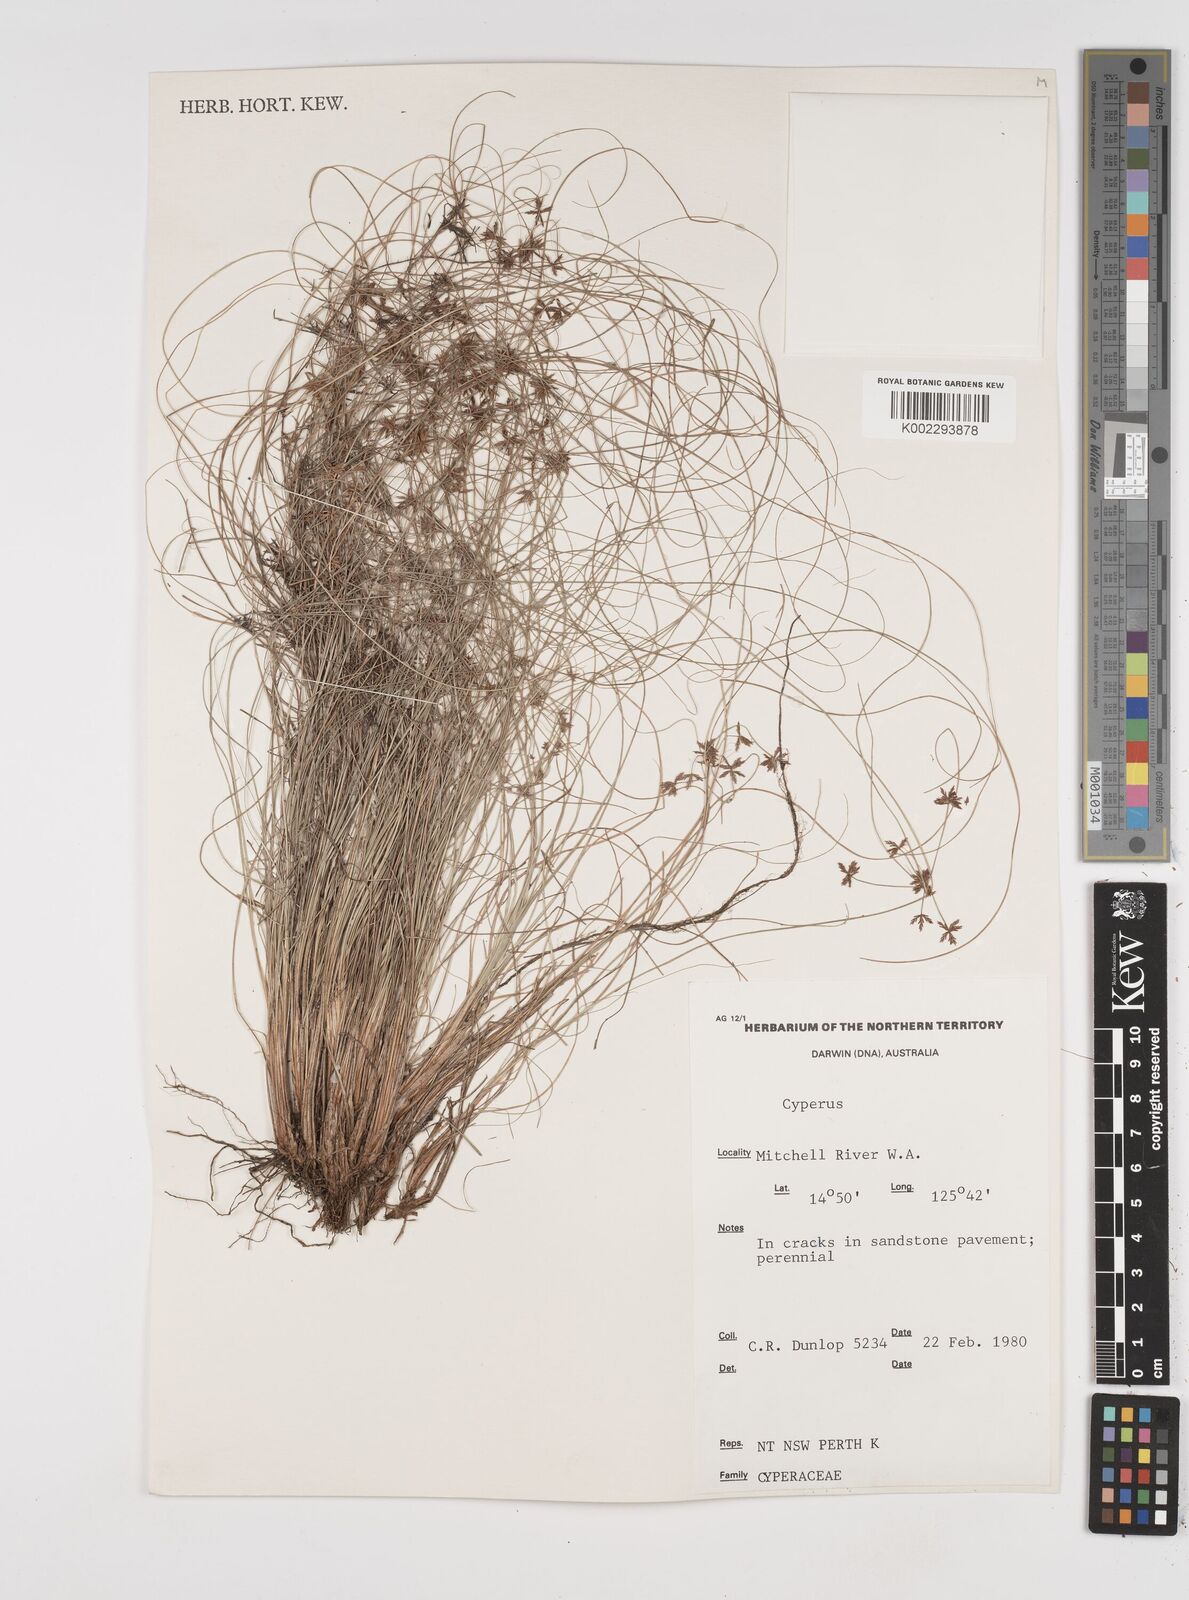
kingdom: Plantae
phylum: Tracheophyta
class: Liliopsida
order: Poales
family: Cyperaceae
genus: Cyperus
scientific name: Cyperus
